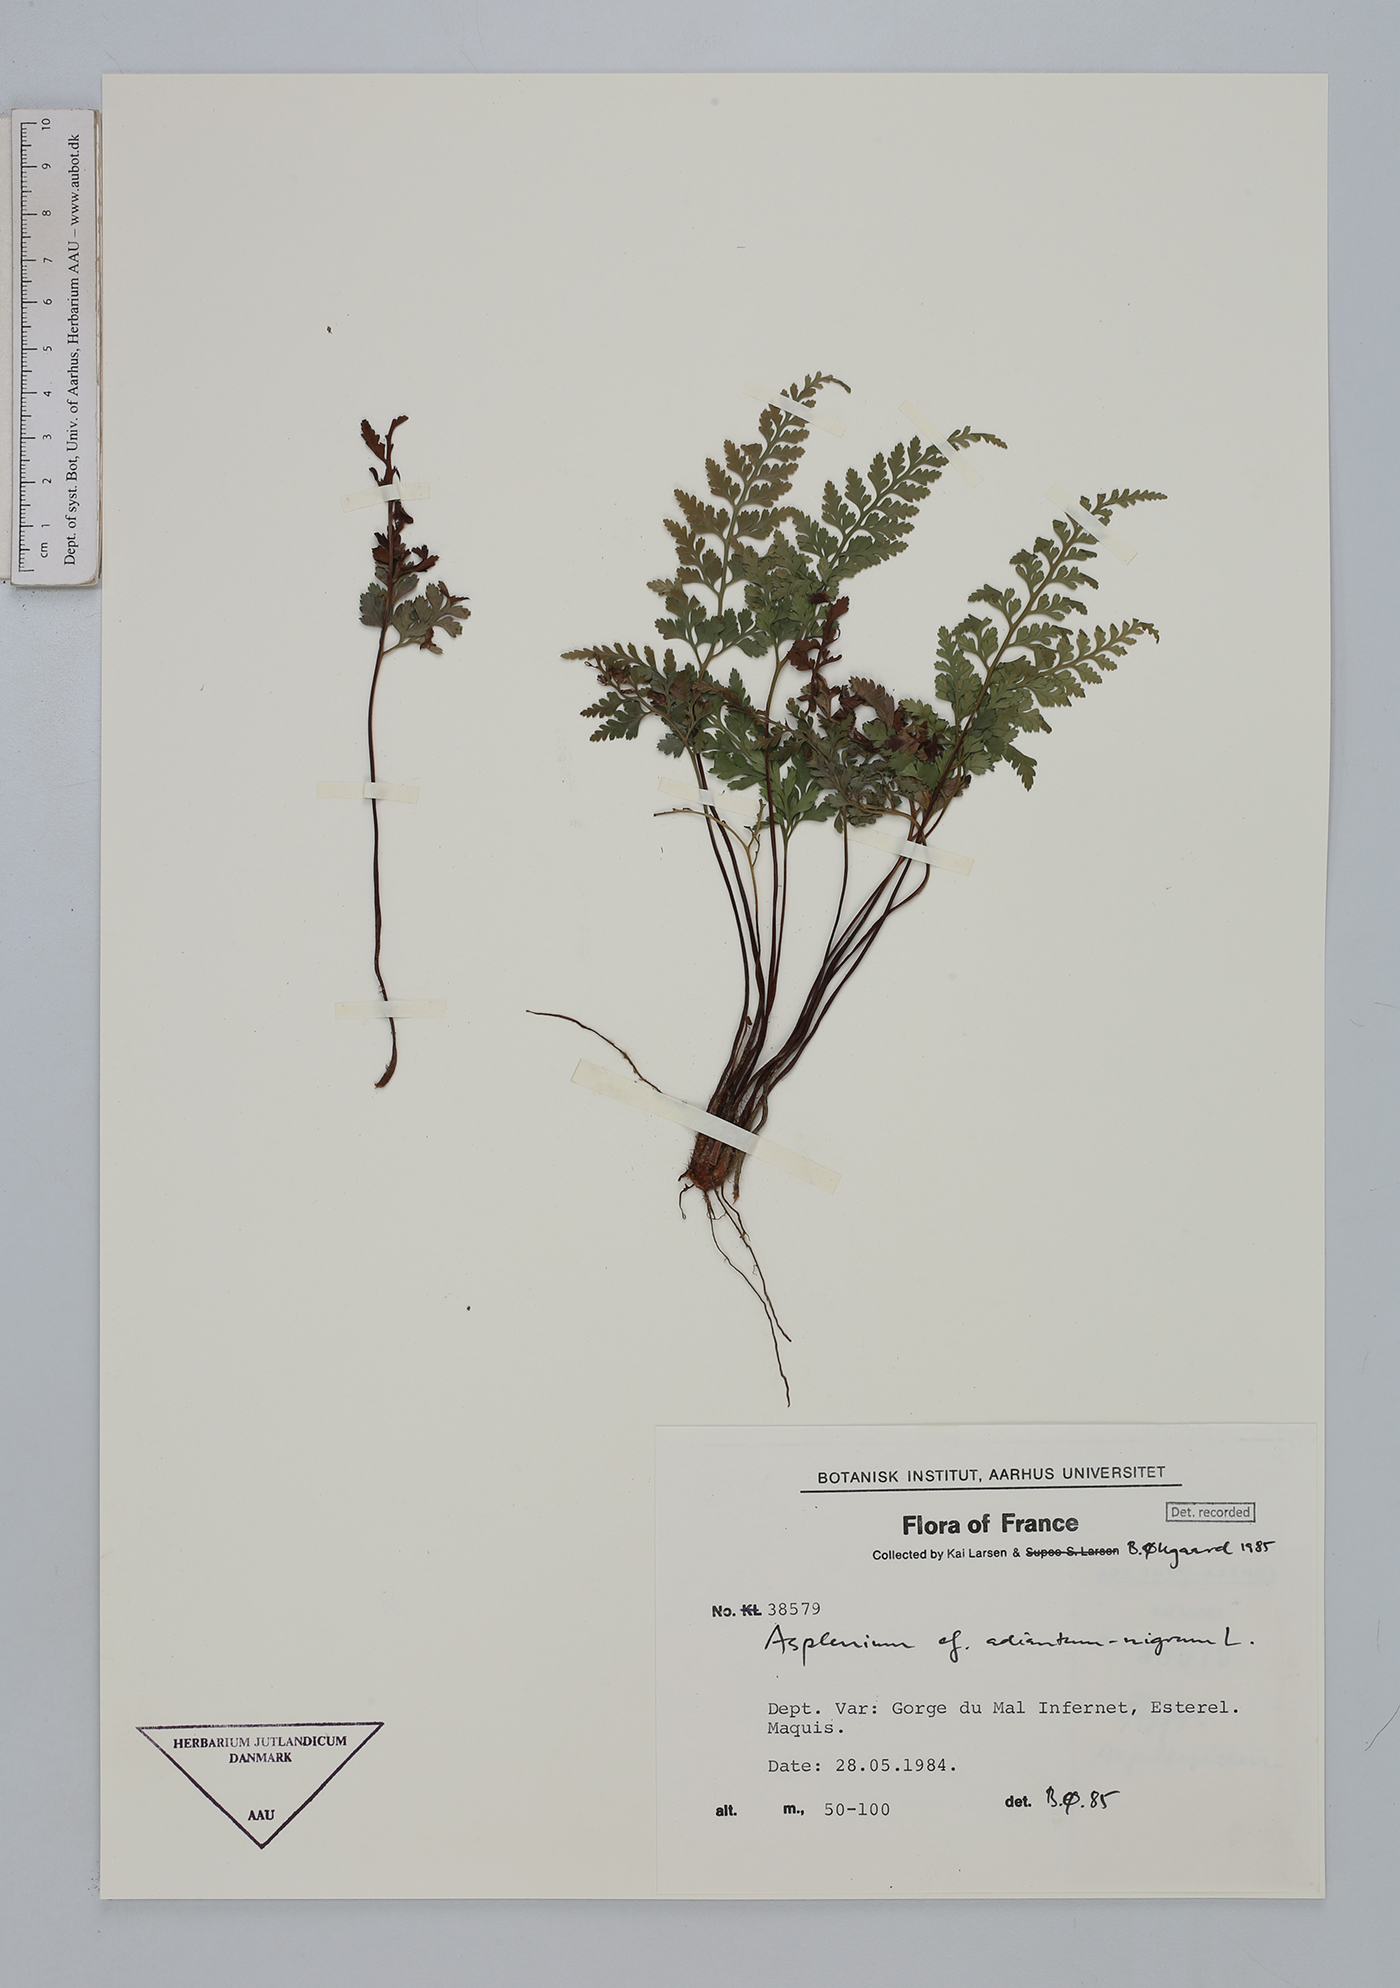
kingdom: Plantae
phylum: Tracheophyta
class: Polypodiopsida
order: Polypodiales
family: Aspleniaceae
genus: Asplenium
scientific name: Asplenium adiantum-nigrum
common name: Black spleenwort
